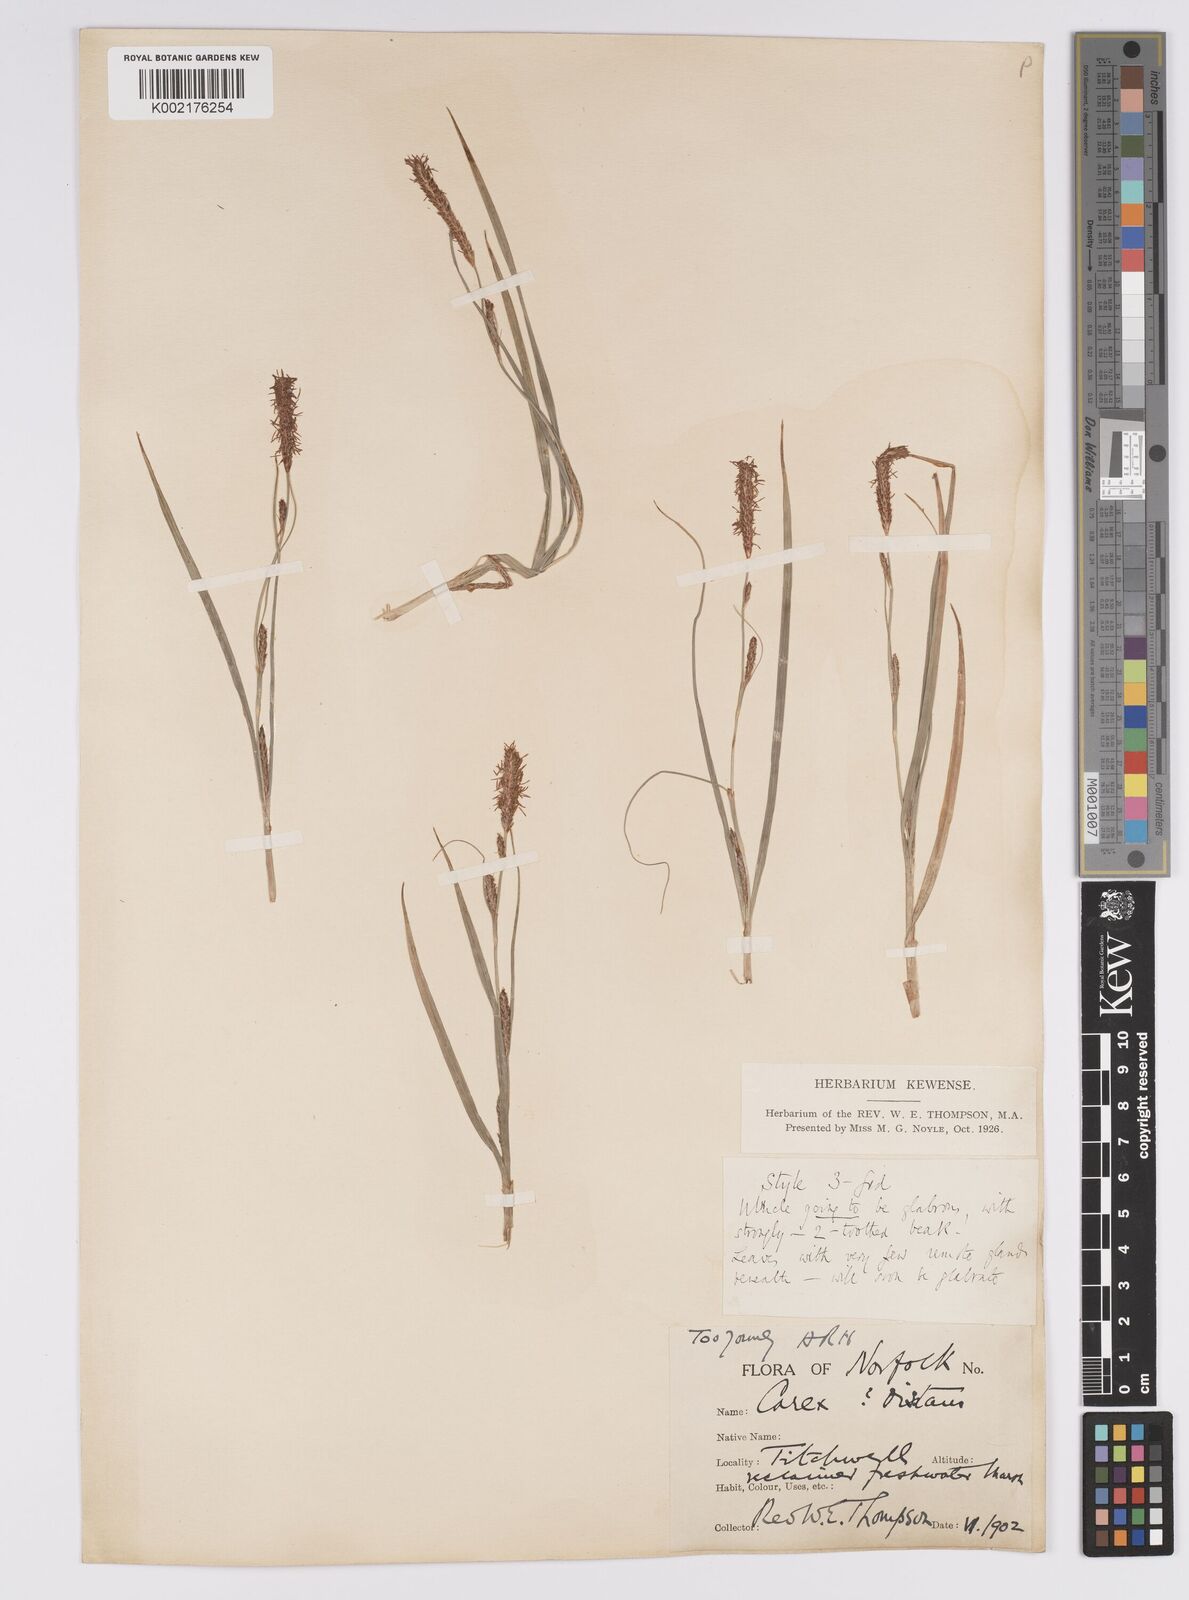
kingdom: Plantae
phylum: Tracheophyta
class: Liliopsida
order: Poales
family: Cyperaceae
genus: Carex
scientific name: Carex distans
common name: Distant sedge
